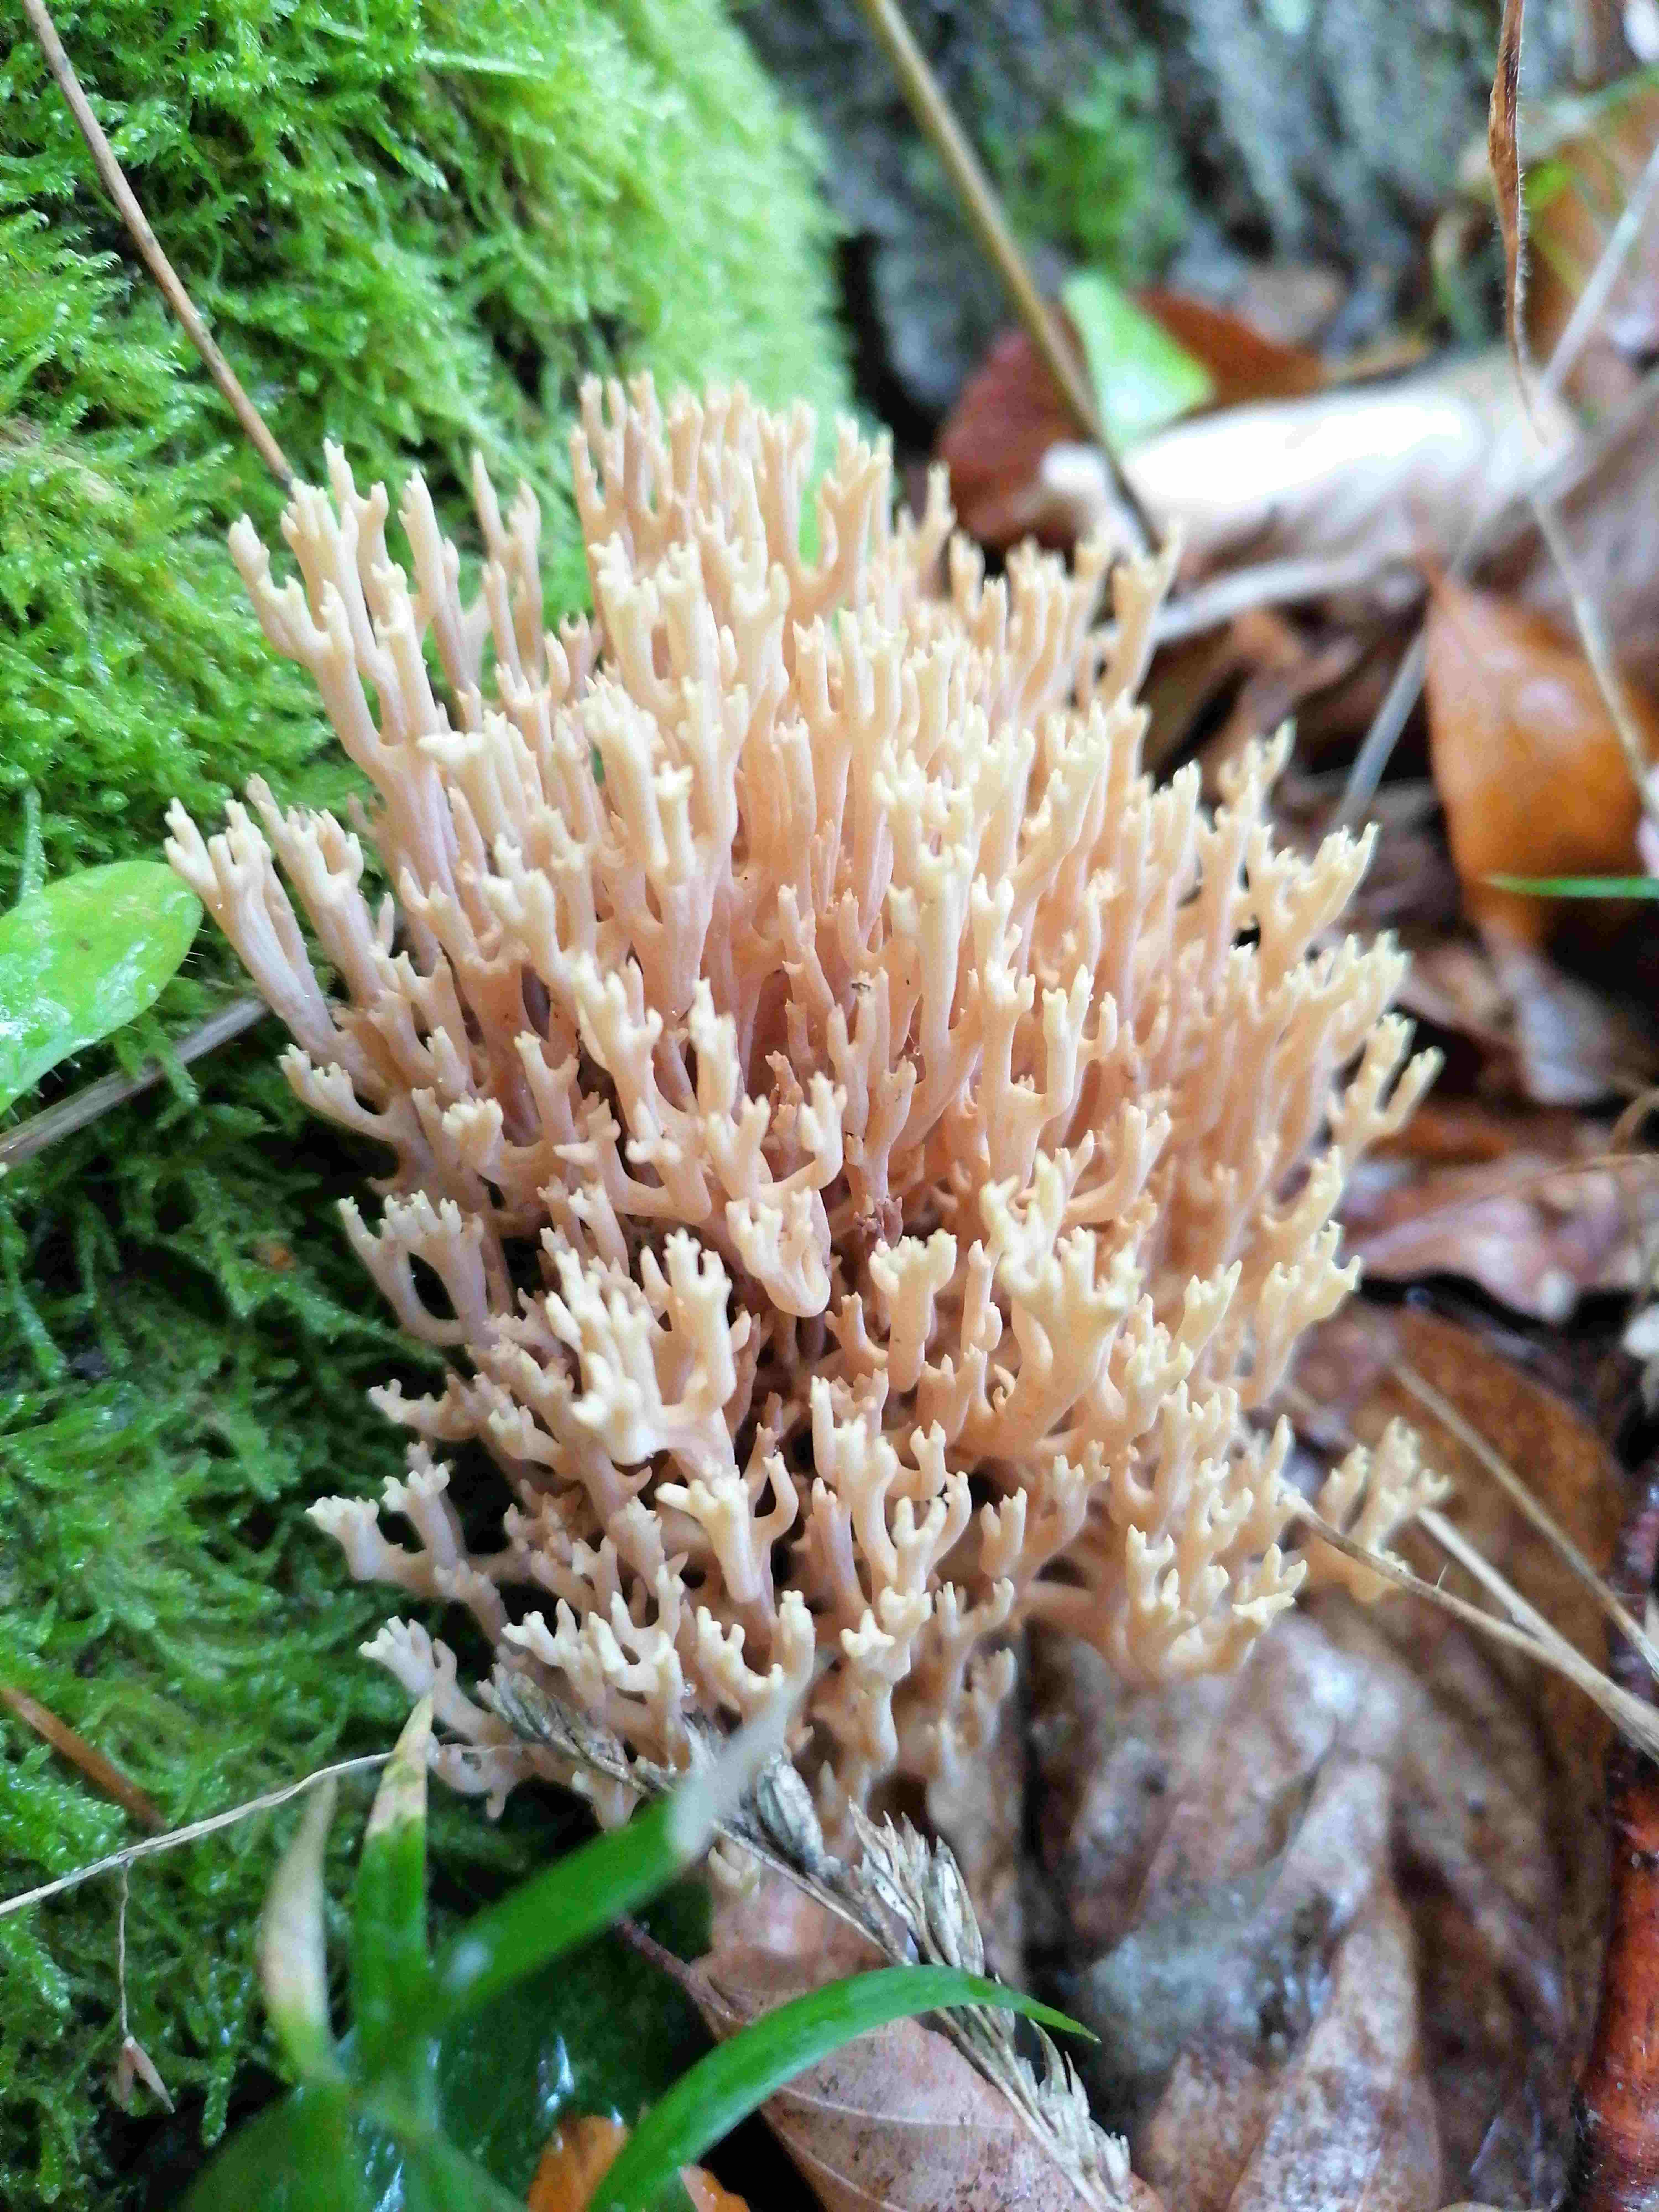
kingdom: Fungi
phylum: Basidiomycota
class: Agaricomycetes
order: Gomphales
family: Gomphaceae
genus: Ramaria
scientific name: Ramaria stricta
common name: rank koralsvamp
